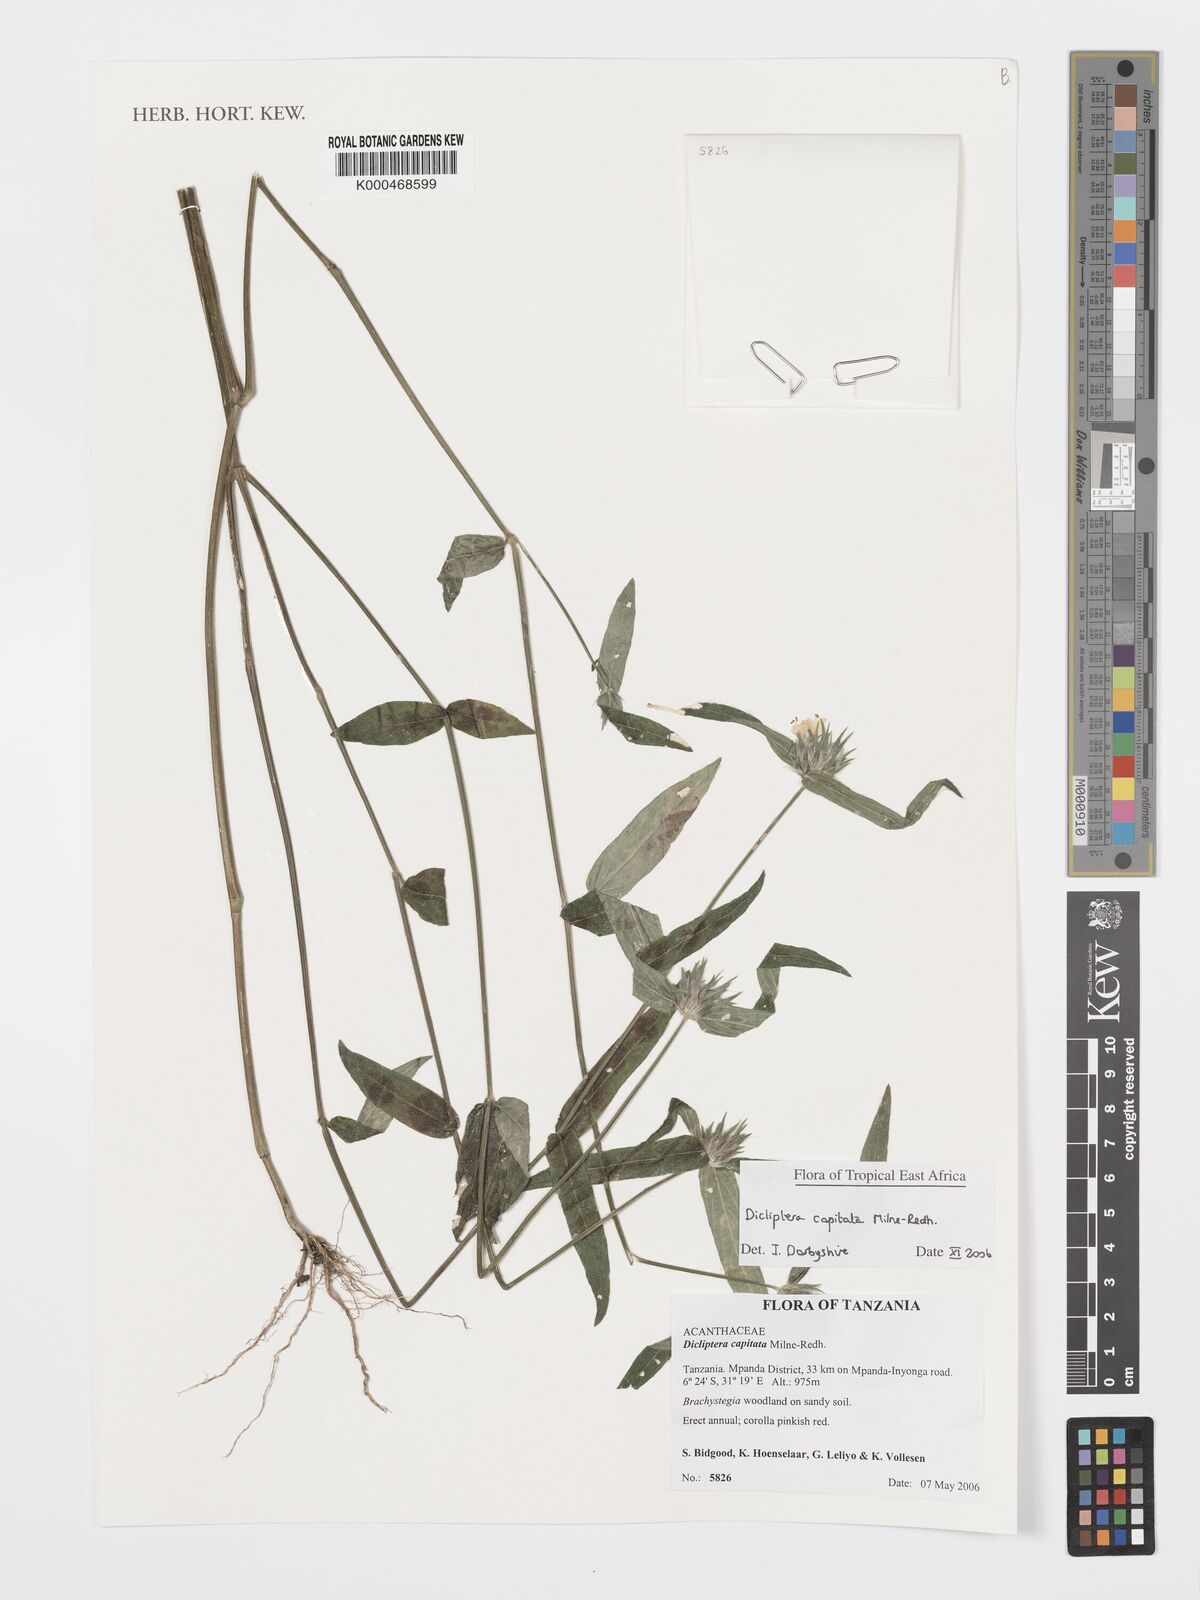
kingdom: Plantae
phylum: Tracheophyta
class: Magnoliopsida
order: Lamiales
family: Acanthaceae
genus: Dicliptera
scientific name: Dicliptera capitata
